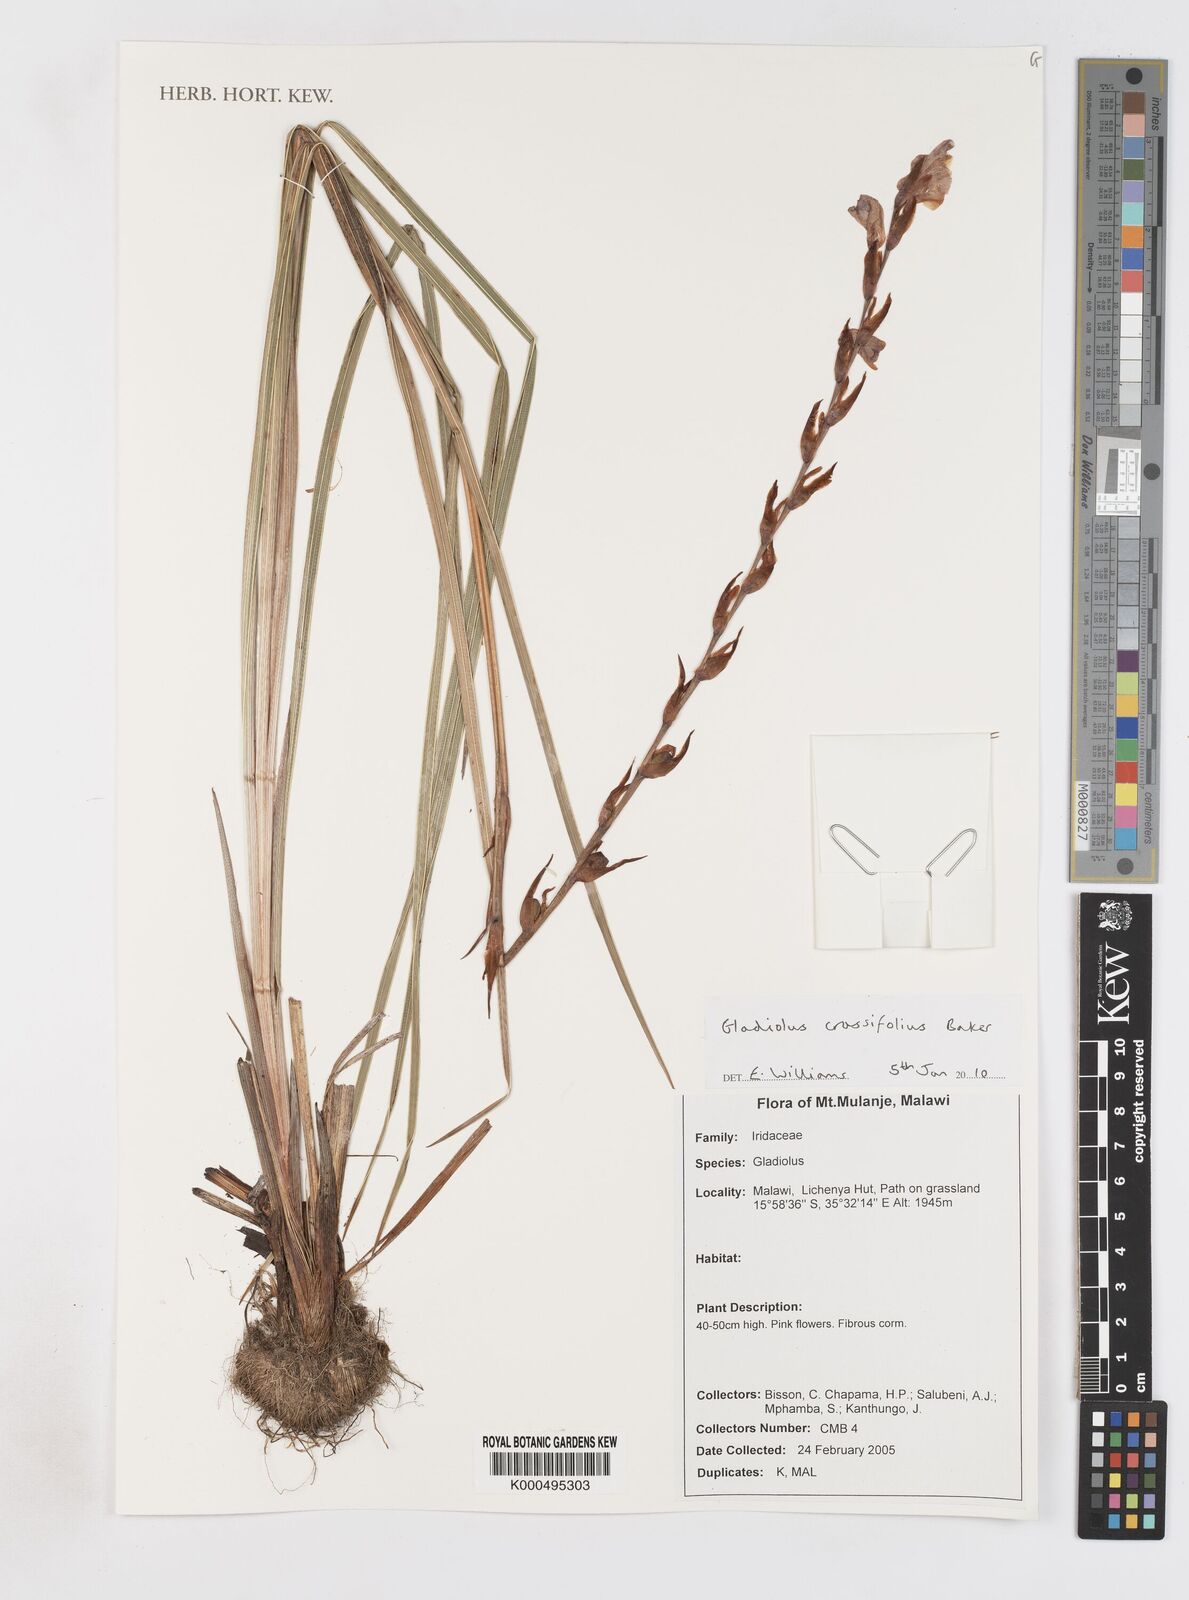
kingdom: Plantae
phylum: Tracheophyta
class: Liliopsida
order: Asparagales
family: Iridaceae
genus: Gladiolus
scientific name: Gladiolus crassifolius
